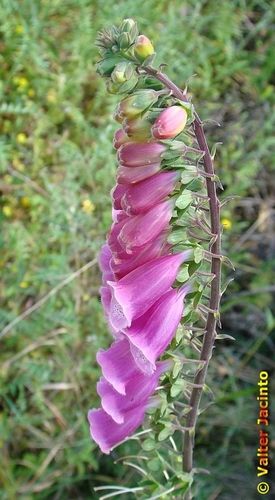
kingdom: Plantae
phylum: Tracheophyta
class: Magnoliopsida
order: Lamiales
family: Plantaginaceae
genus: Digitalis
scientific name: Digitalis purpurea
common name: Foxglove
